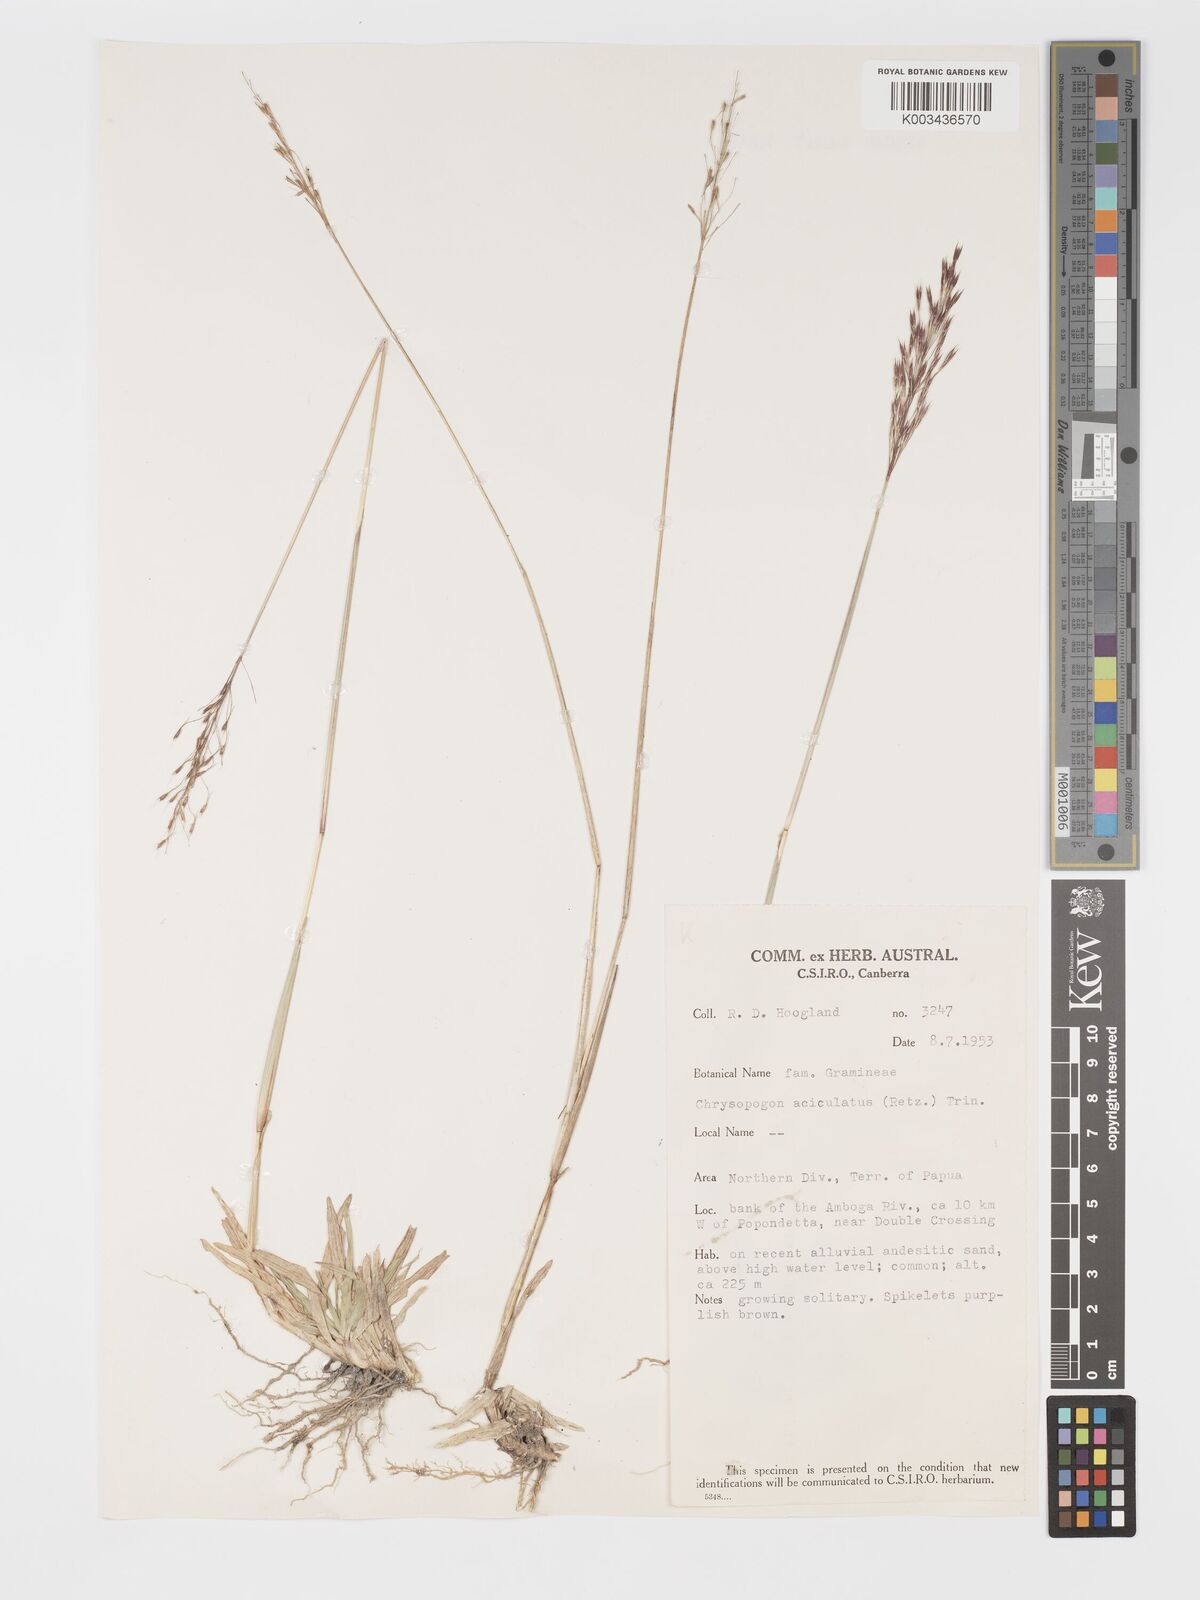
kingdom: Plantae
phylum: Tracheophyta
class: Liliopsida
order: Poales
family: Poaceae
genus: Chrysopogon
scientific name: Chrysopogon aciculatus
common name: Pilipiliula
